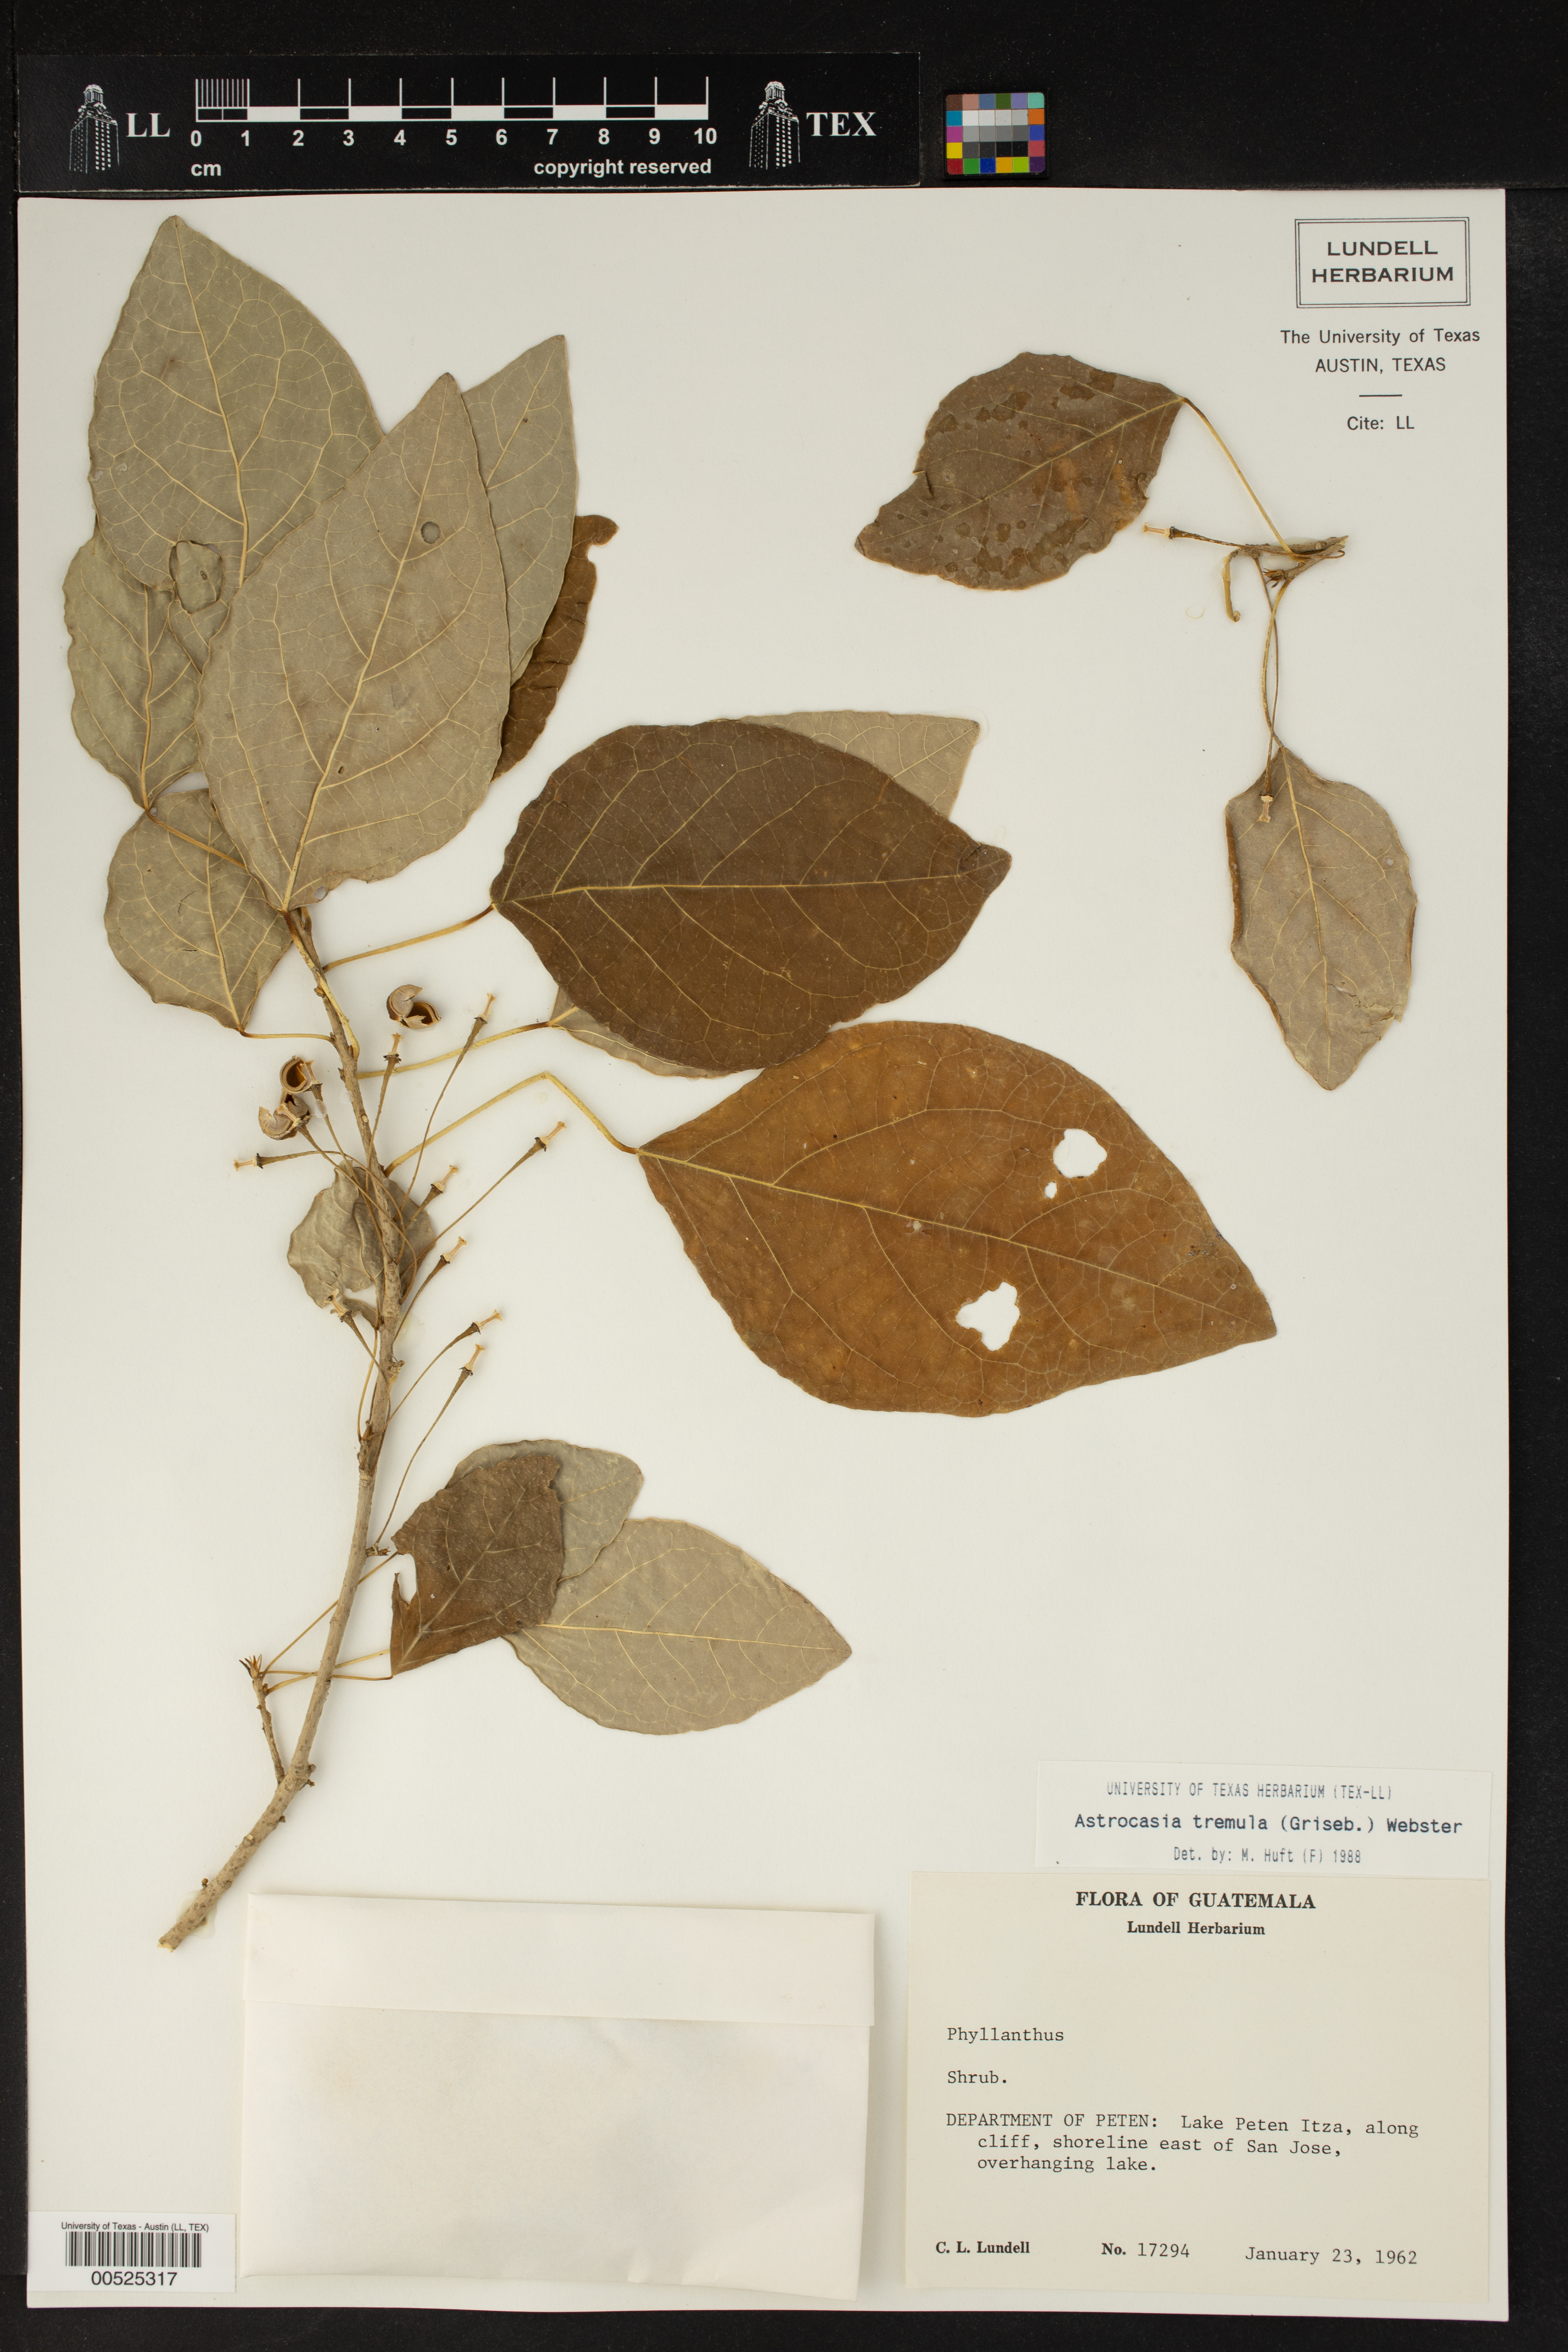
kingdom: Plantae
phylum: Tracheophyta
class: Magnoliopsida
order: Malpighiales
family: Phyllanthaceae
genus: Astrocasia
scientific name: Astrocasia tremula
